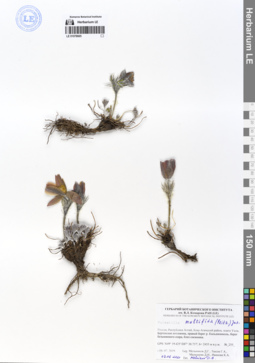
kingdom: Plantae
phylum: Tracheophyta
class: Magnoliopsida
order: Ranunculales
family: Ranunculaceae
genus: Pulsatilla
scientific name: Pulsatilla patens
